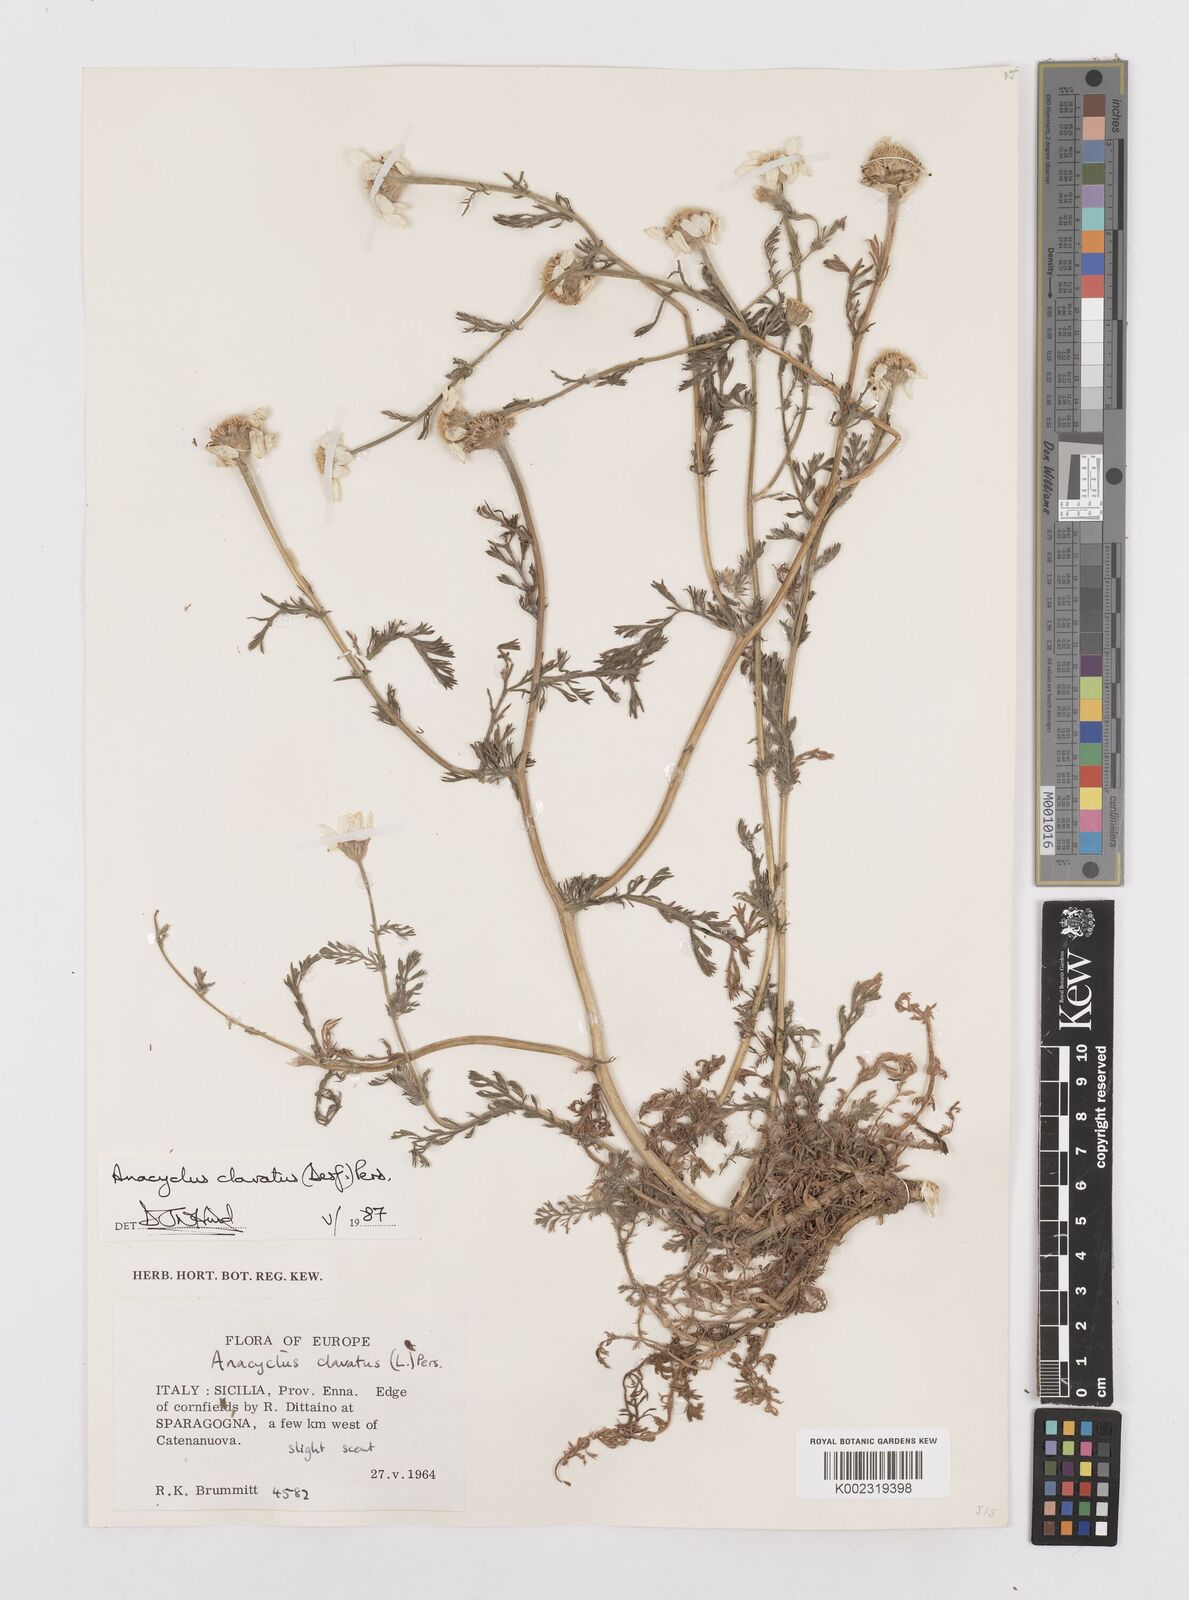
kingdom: Plantae
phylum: Tracheophyta
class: Magnoliopsida
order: Asterales
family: Asteraceae
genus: Anacyclus
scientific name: Anacyclus clavatus
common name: Whitebuttons
